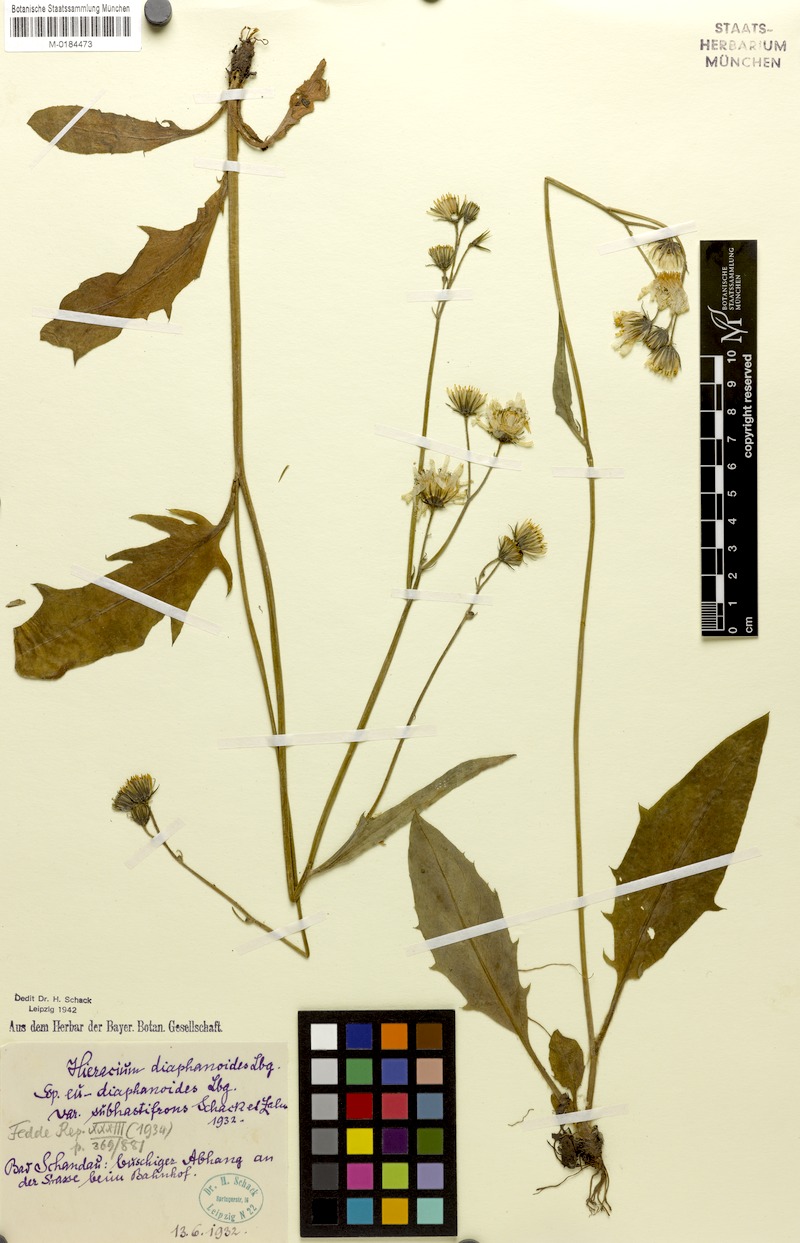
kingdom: Plantae
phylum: Tracheophyta
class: Magnoliopsida
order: Asterales
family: Asteraceae
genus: Hieracium
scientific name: Hieracium diaphanoides
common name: Fine-bracted hawkweed
